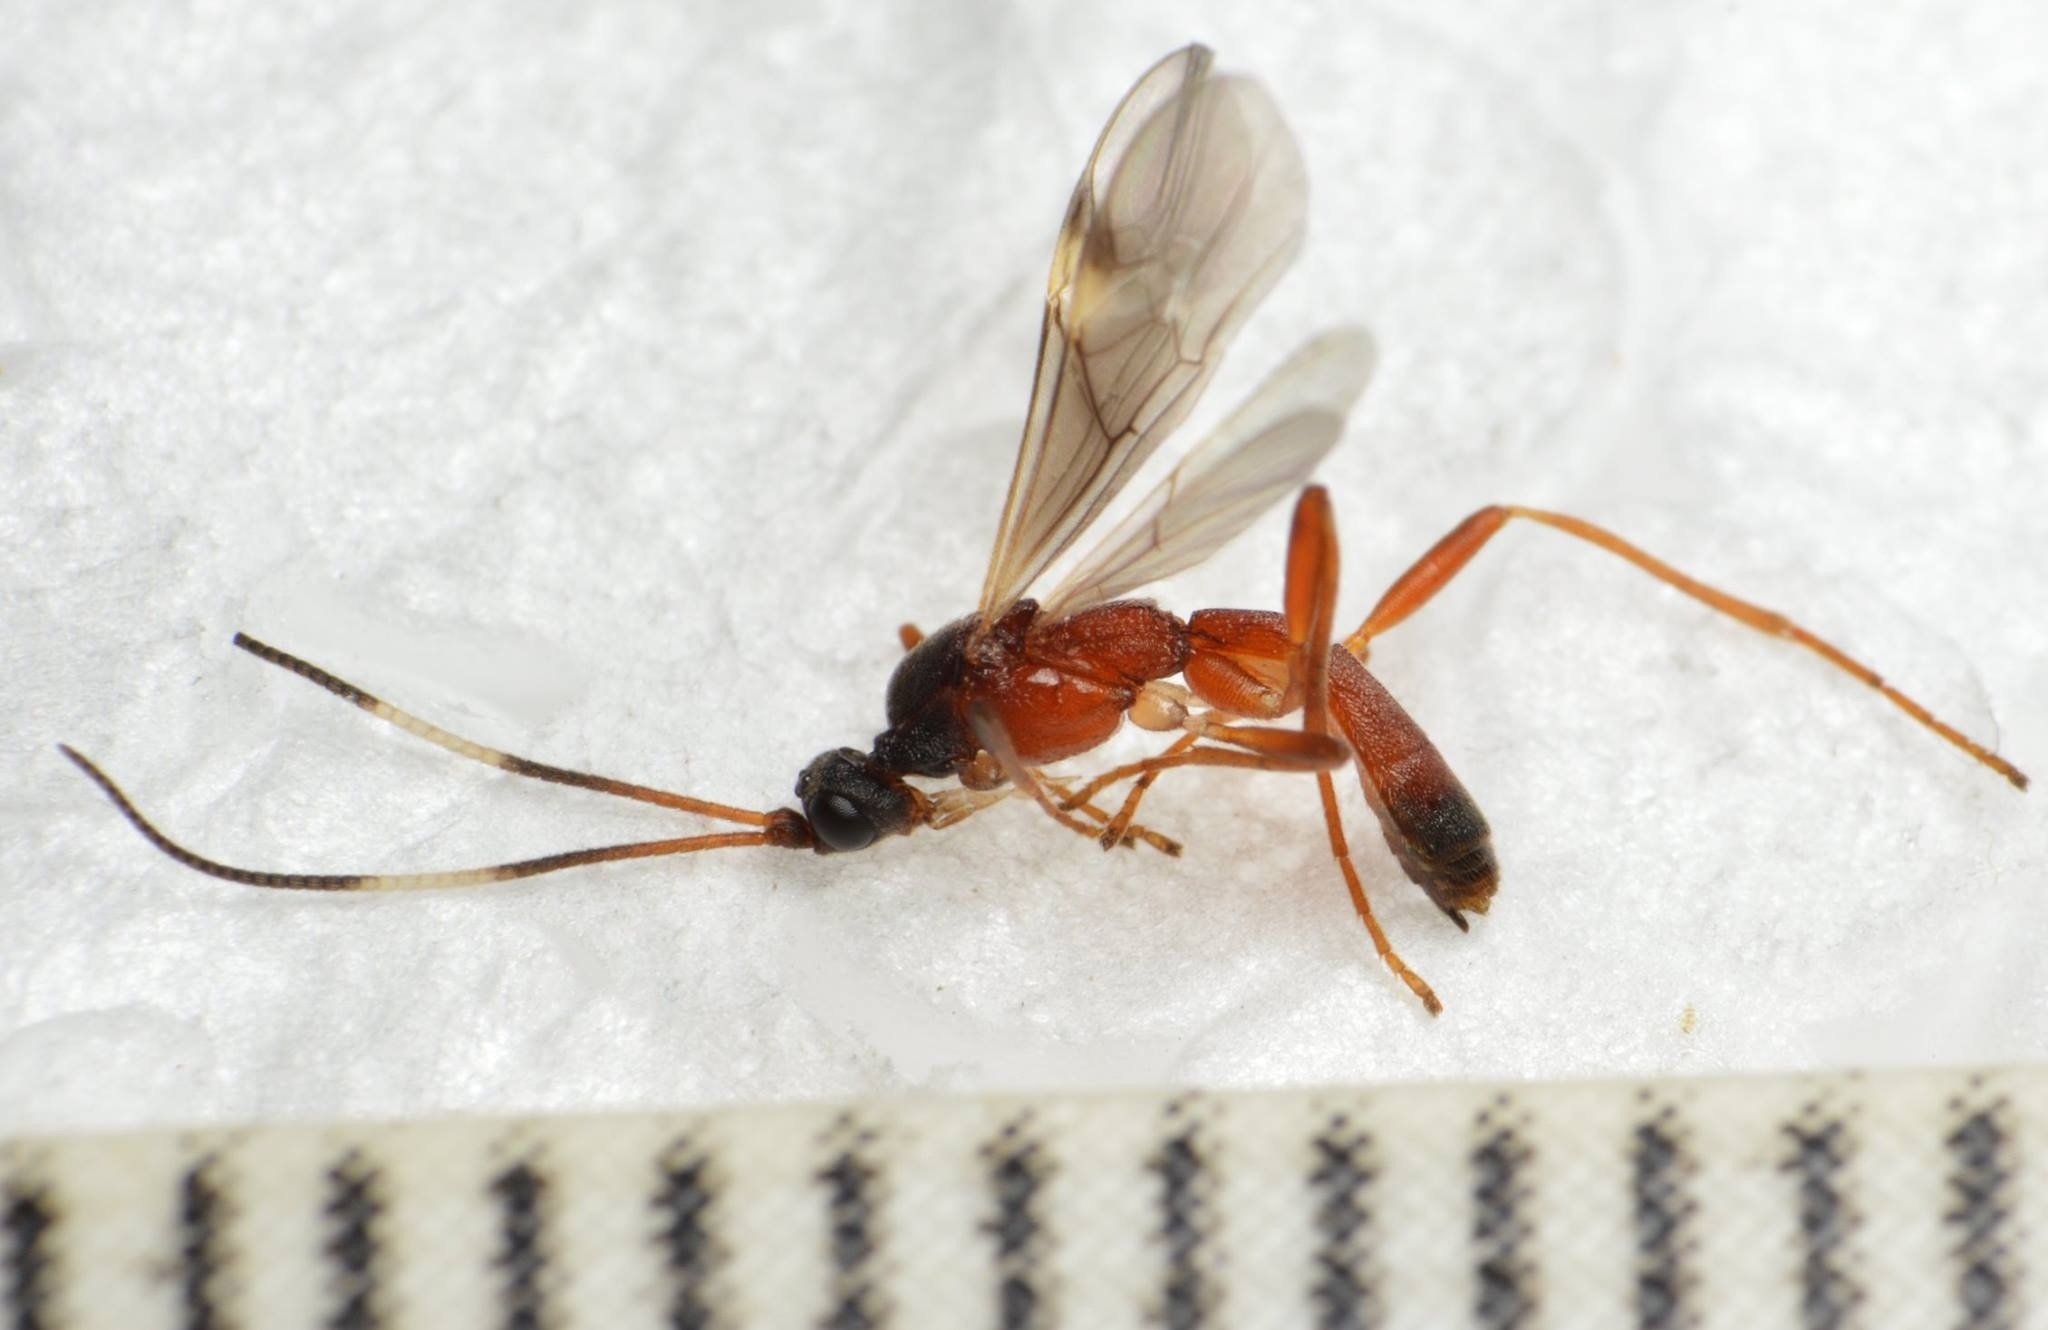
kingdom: Animalia
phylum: Arthropoda
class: Insecta
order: Hymenoptera
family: Braconidae
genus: Heterogamus
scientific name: Heterogamus dispar
